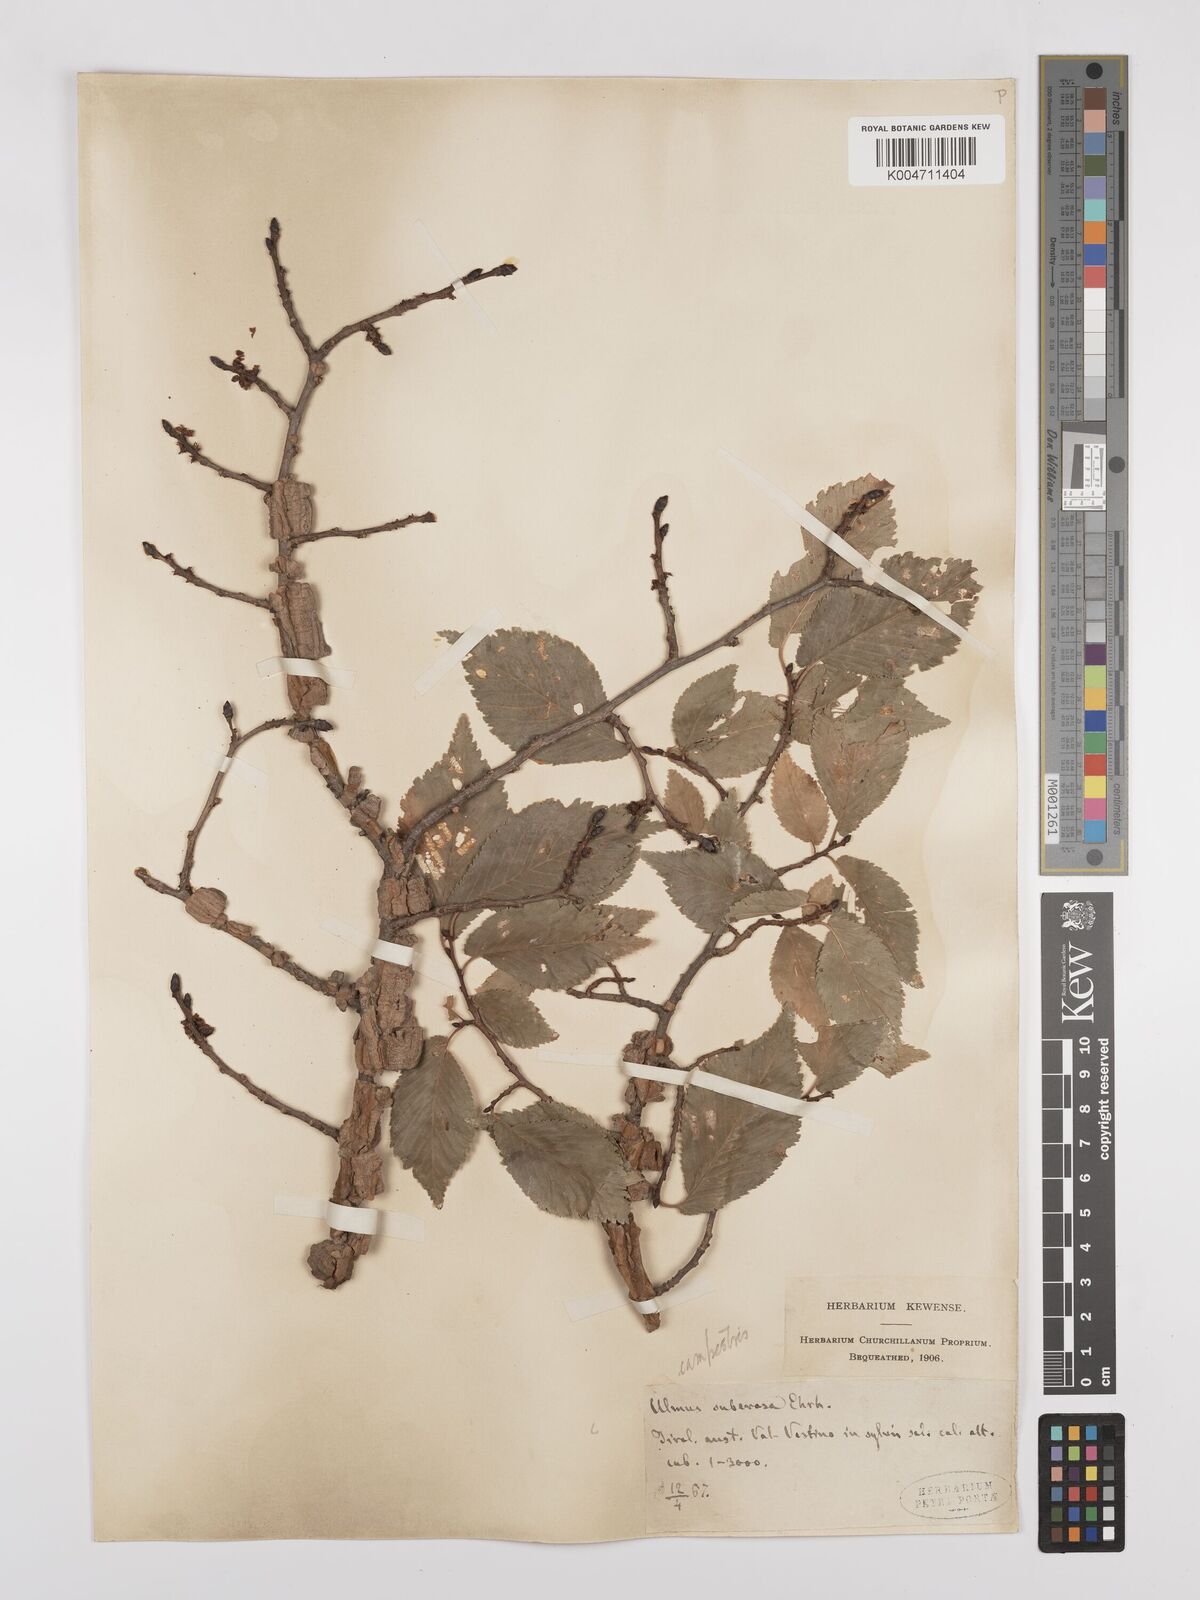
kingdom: Plantae
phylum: Tracheophyta
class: Magnoliopsida
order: Rosales
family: Ulmaceae
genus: Ulmus
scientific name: Ulmus minor
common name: Small-leaved elm
